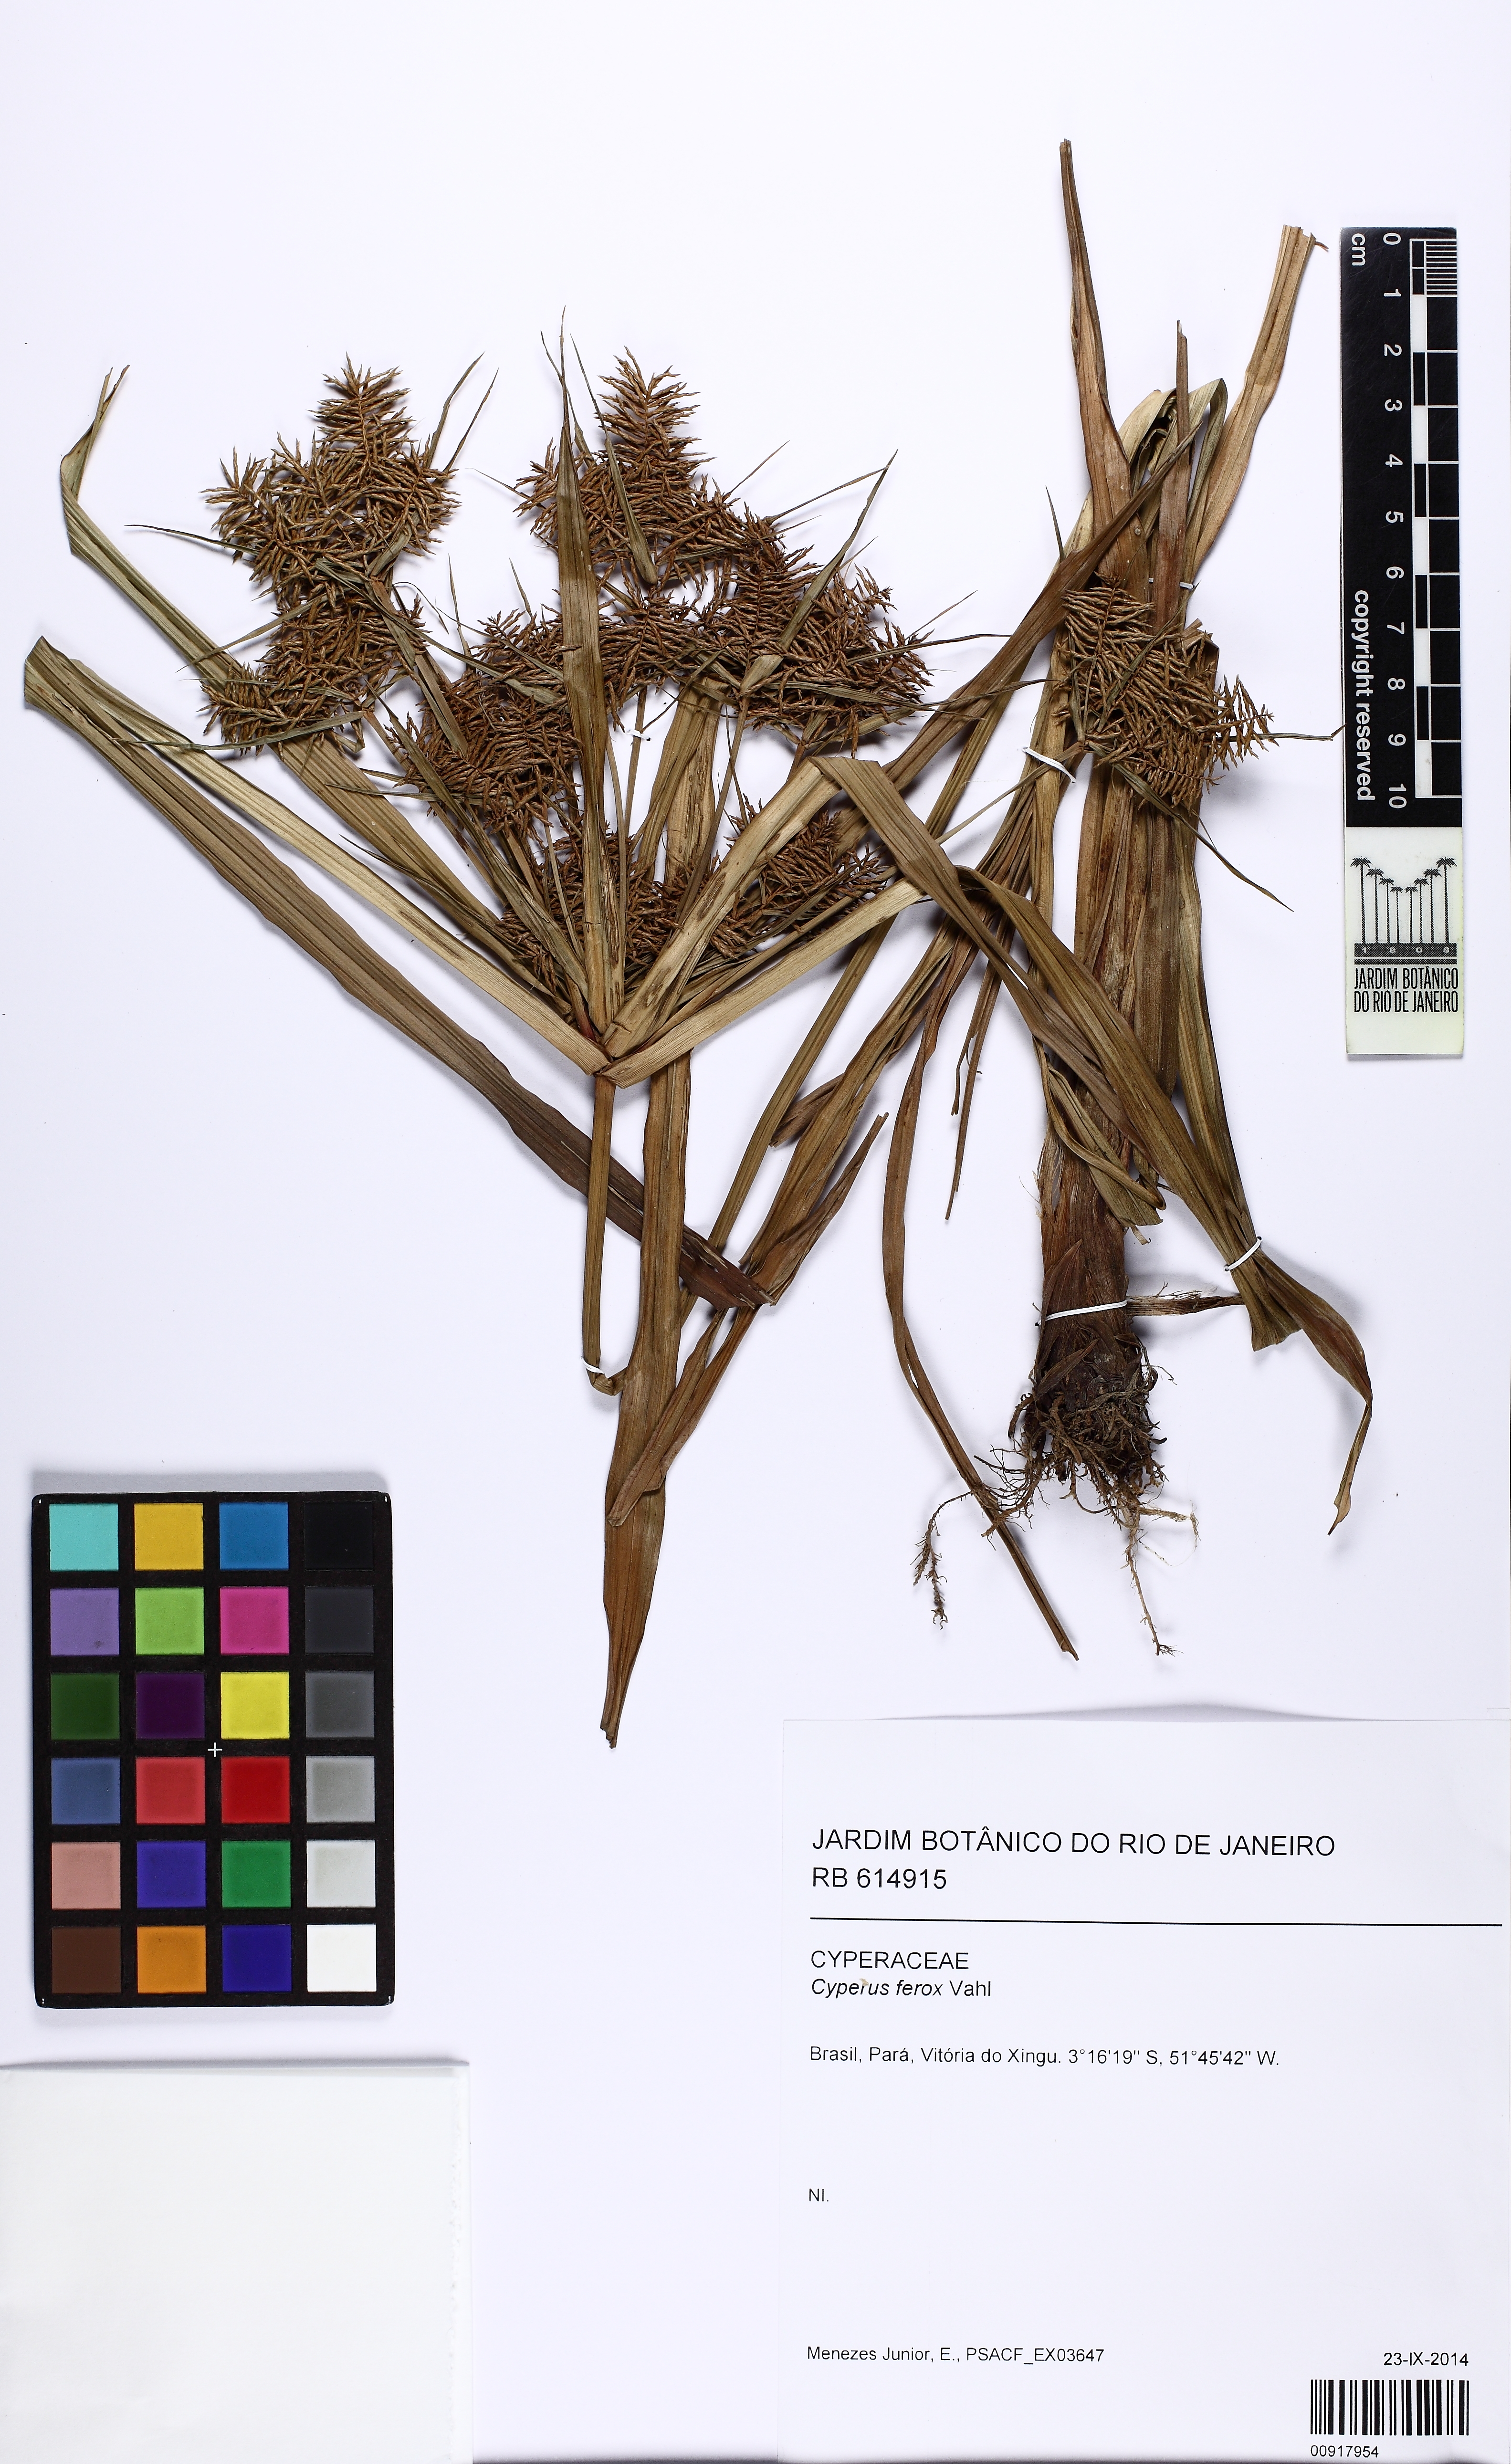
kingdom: Plantae
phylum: Tracheophyta
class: Liliopsida
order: Poales
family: Cyperaceae
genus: Cyperus
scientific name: Cyperus odoratus
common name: Fragrant flatsedge
